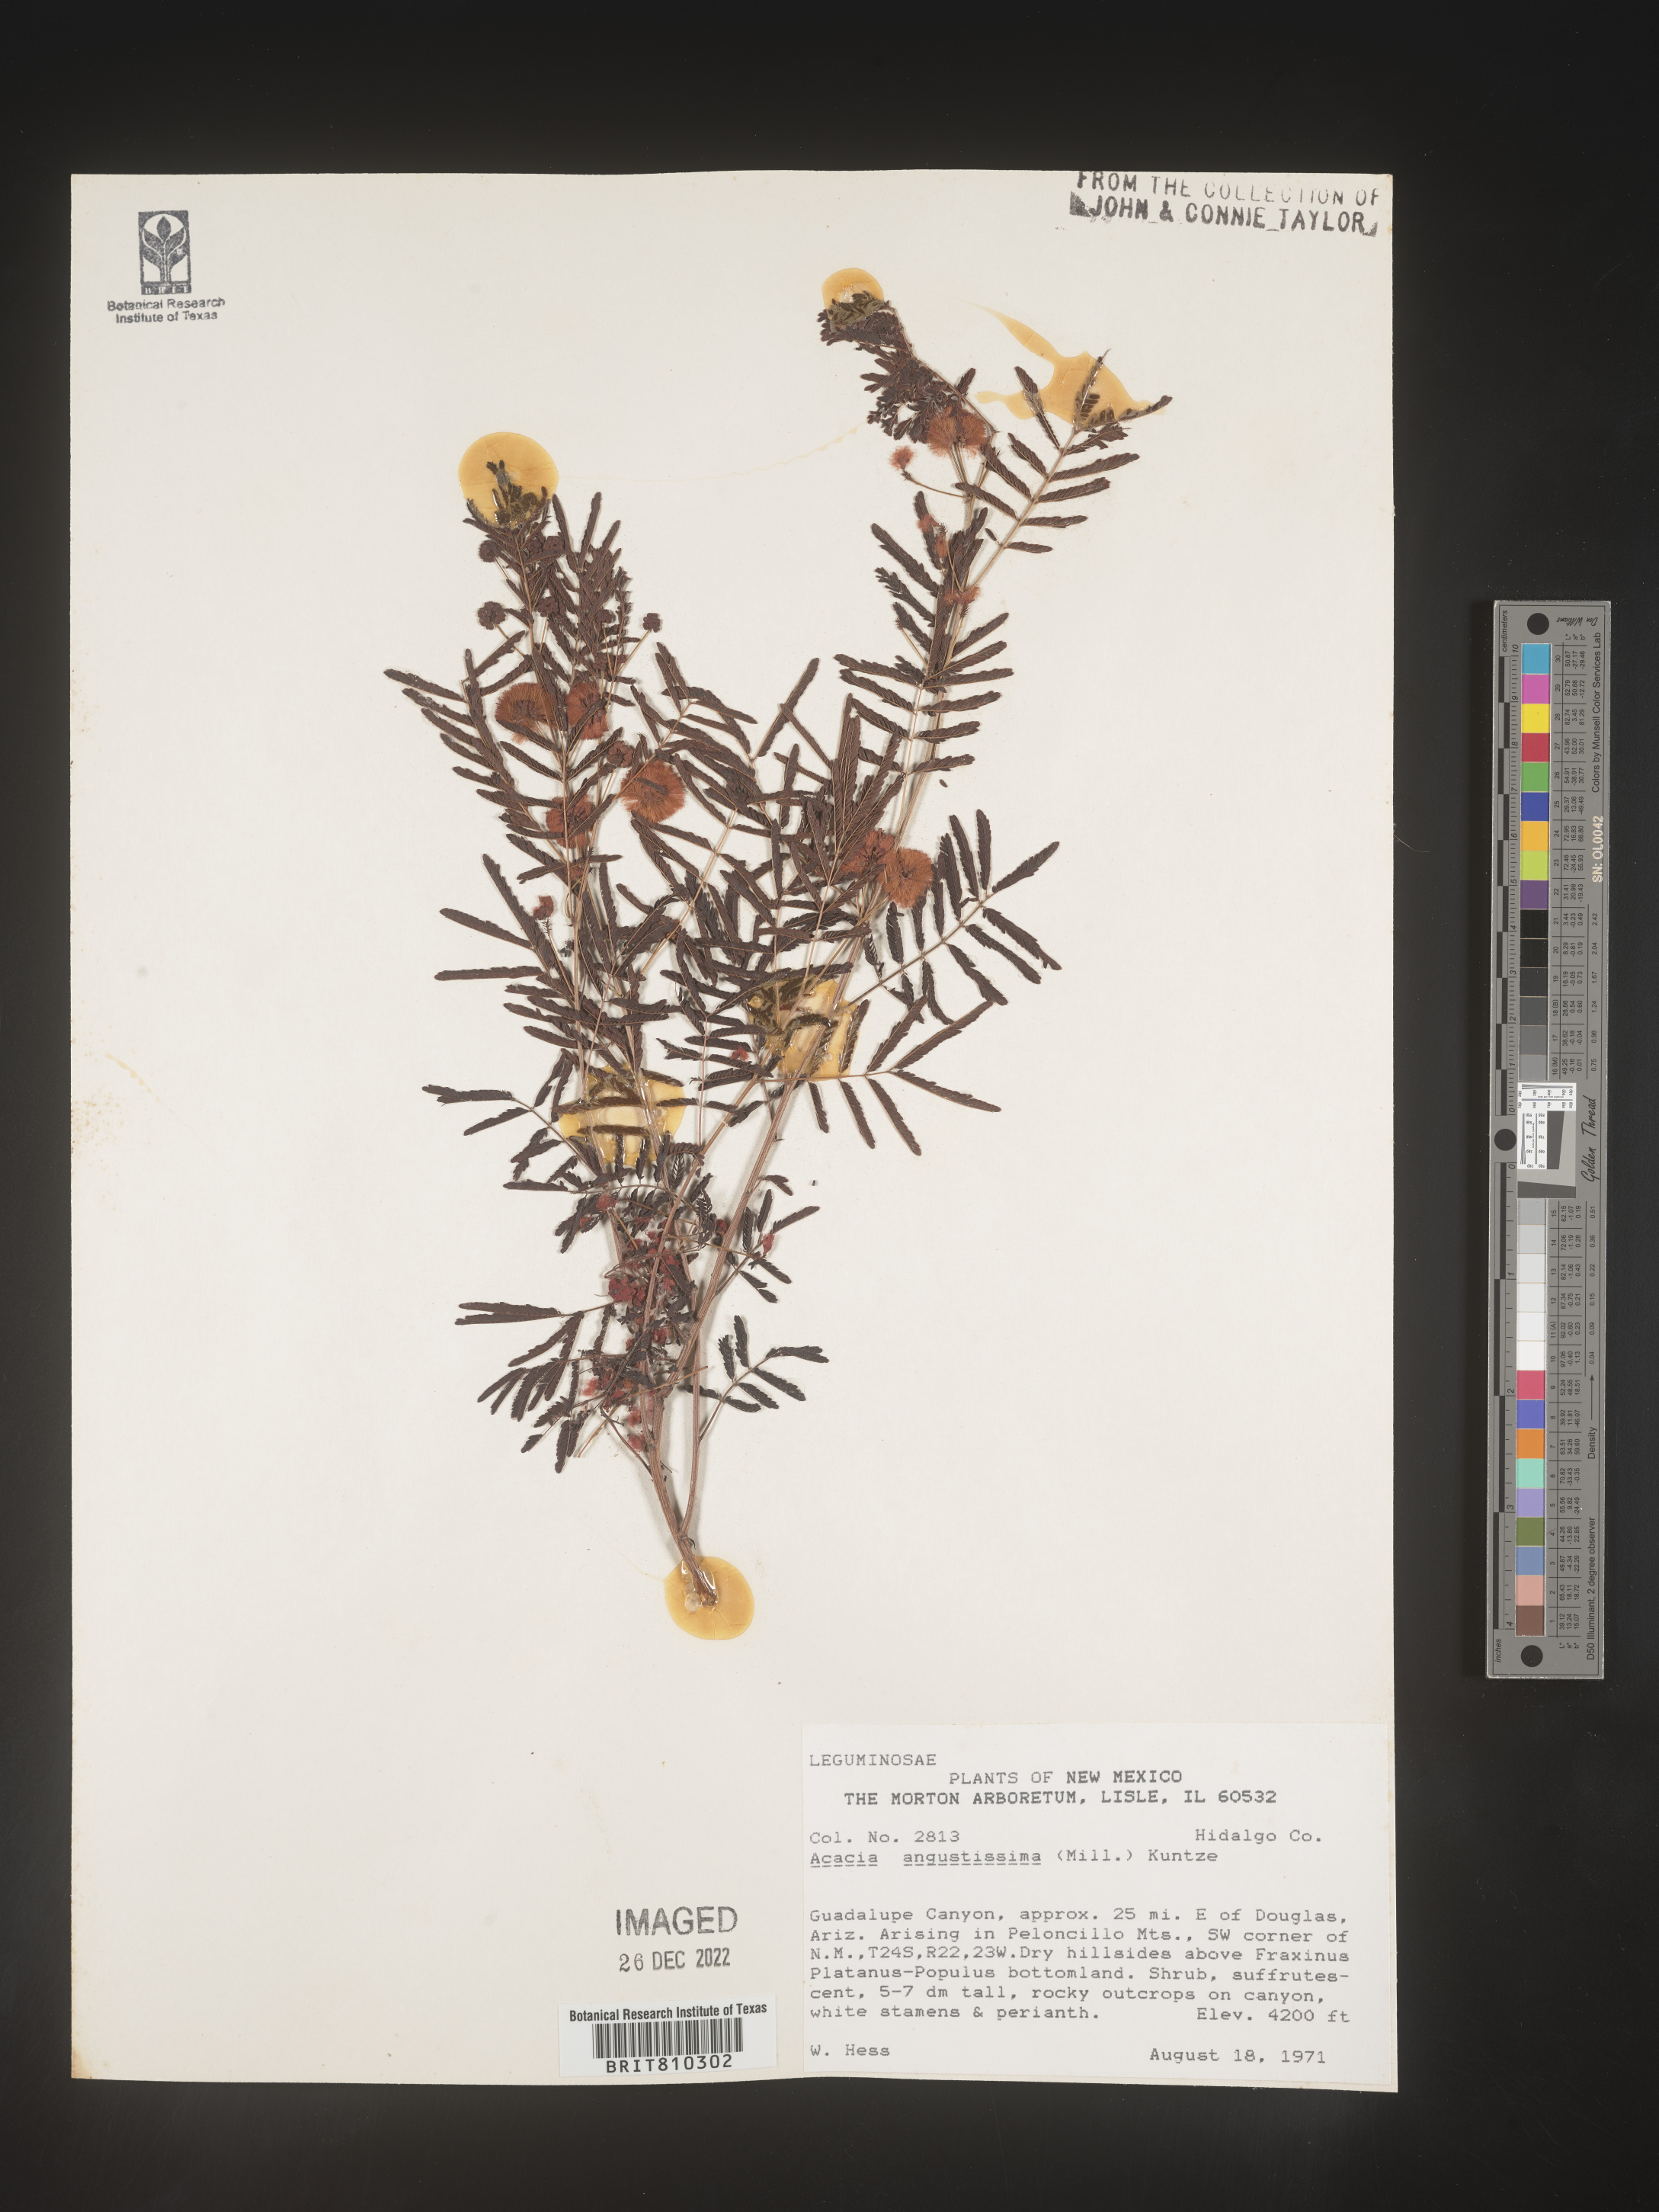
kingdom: Plantae
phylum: Tracheophyta
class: Magnoliopsida
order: Fabales
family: Fabaceae
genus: Acaciella
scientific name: Acaciella angustissima
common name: Prairie acacia
